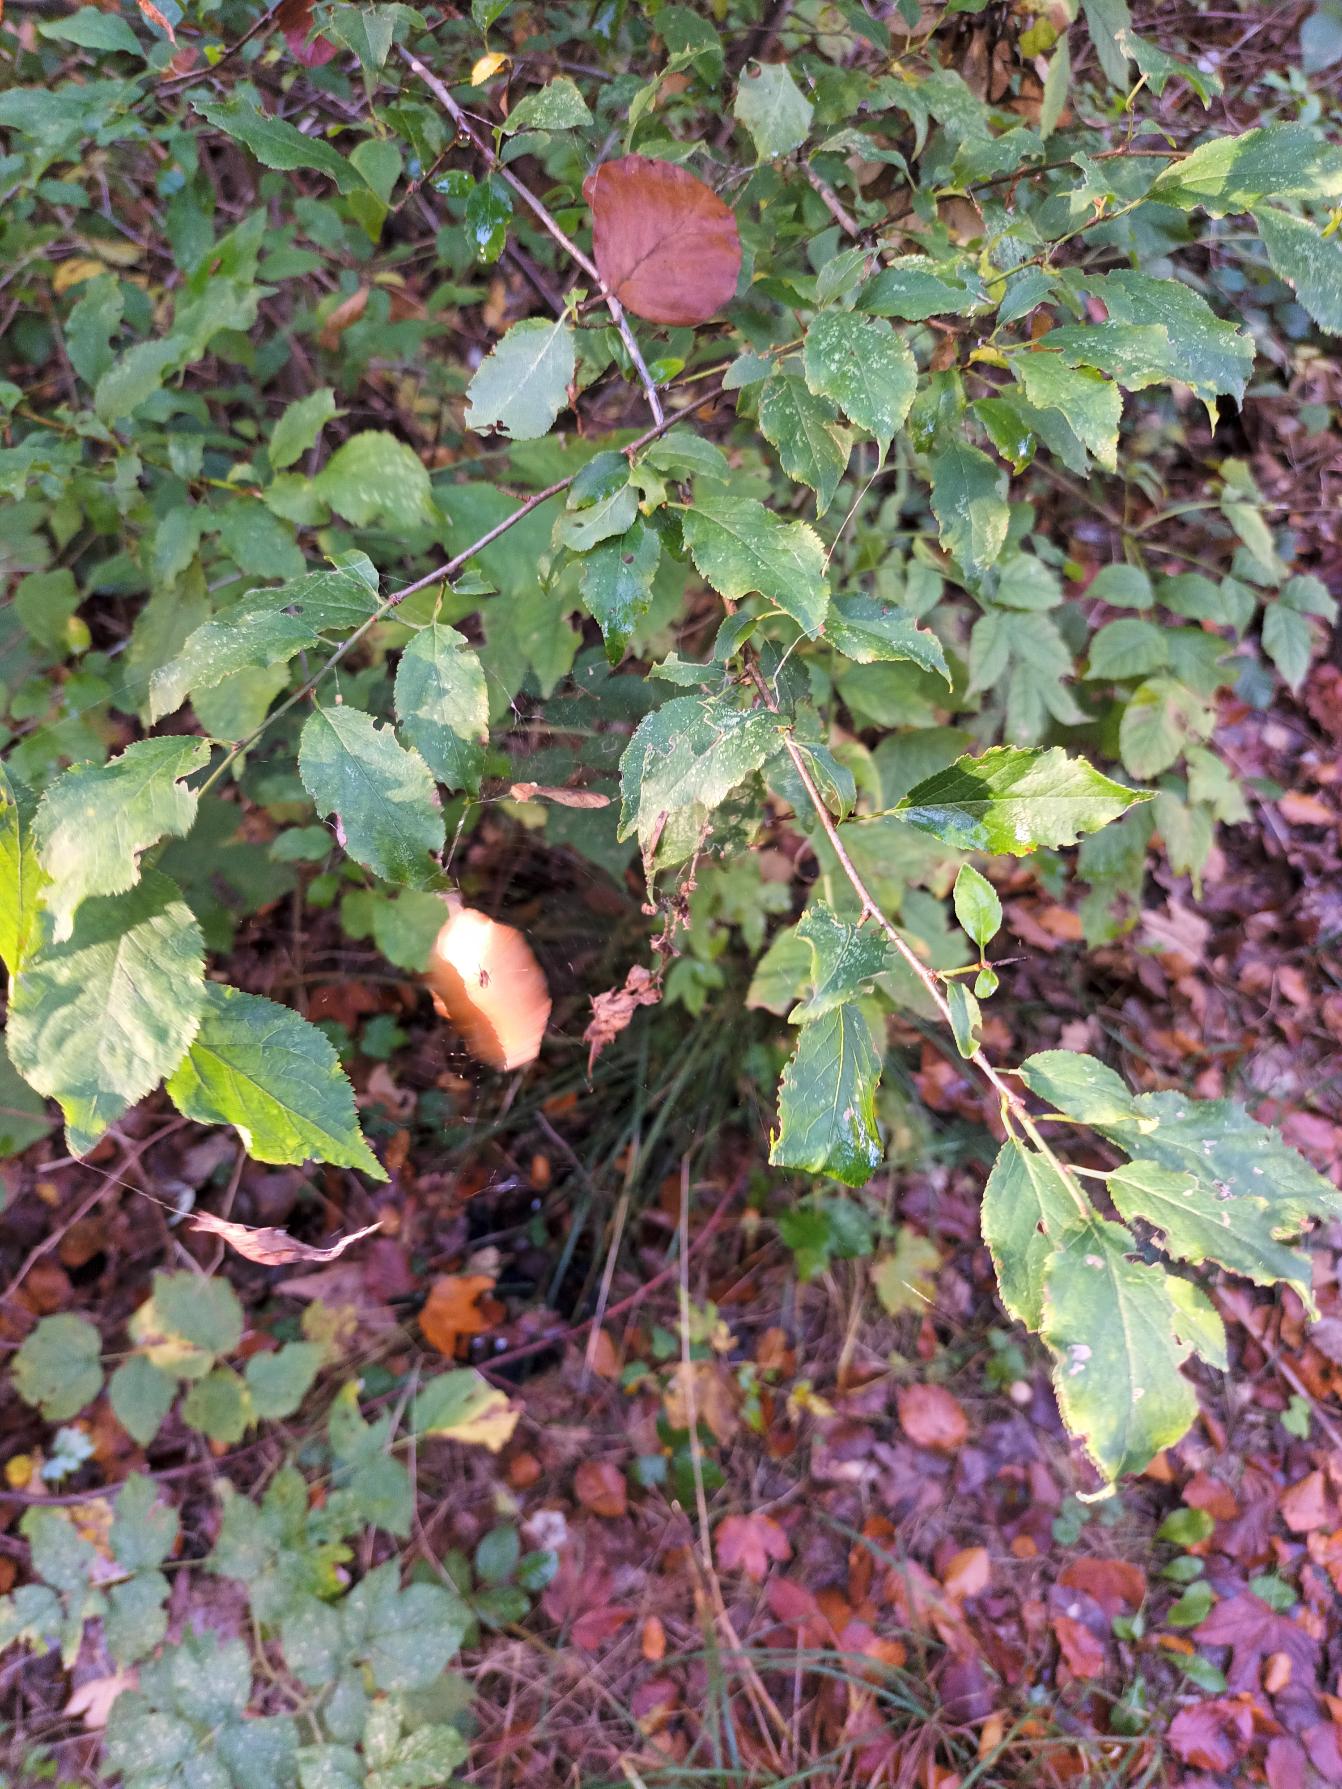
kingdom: Plantae
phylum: Tracheophyta
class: Magnoliopsida
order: Rosales
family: Rosaceae
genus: Prunus
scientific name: Prunus cerasifera
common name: Mirabel
